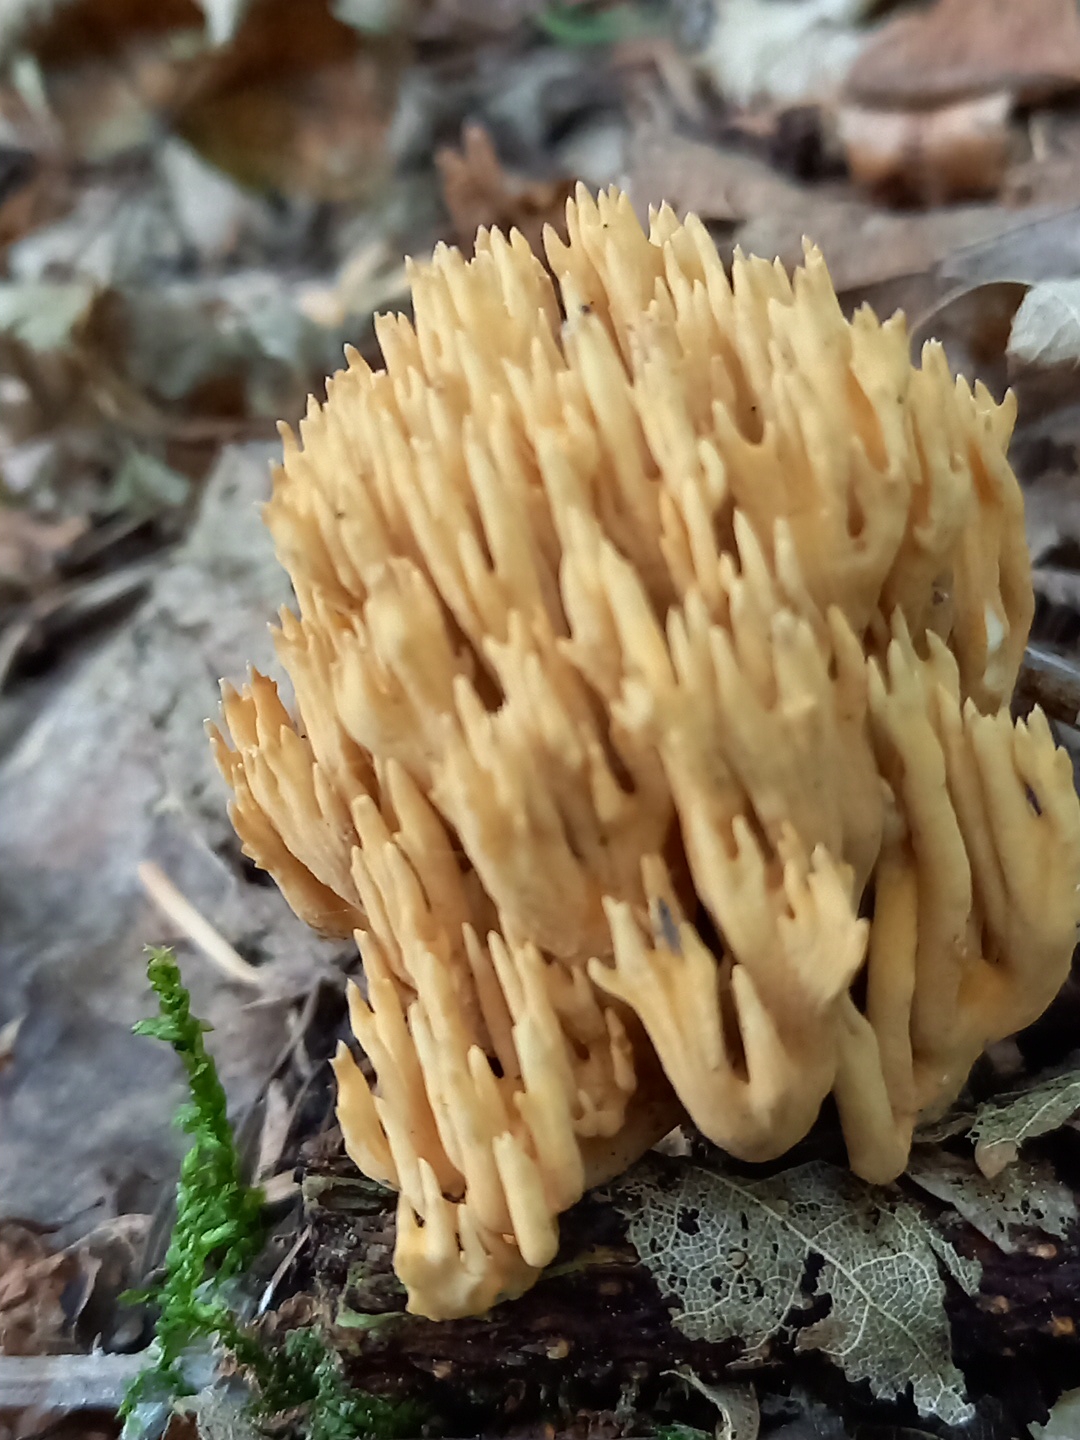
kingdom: Fungi
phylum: Basidiomycota
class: Agaricomycetes
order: Gomphales
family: Gomphaceae
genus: Phaeoclavulina
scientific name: Phaeoclavulina eumorpha
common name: gran-koralsvamp
